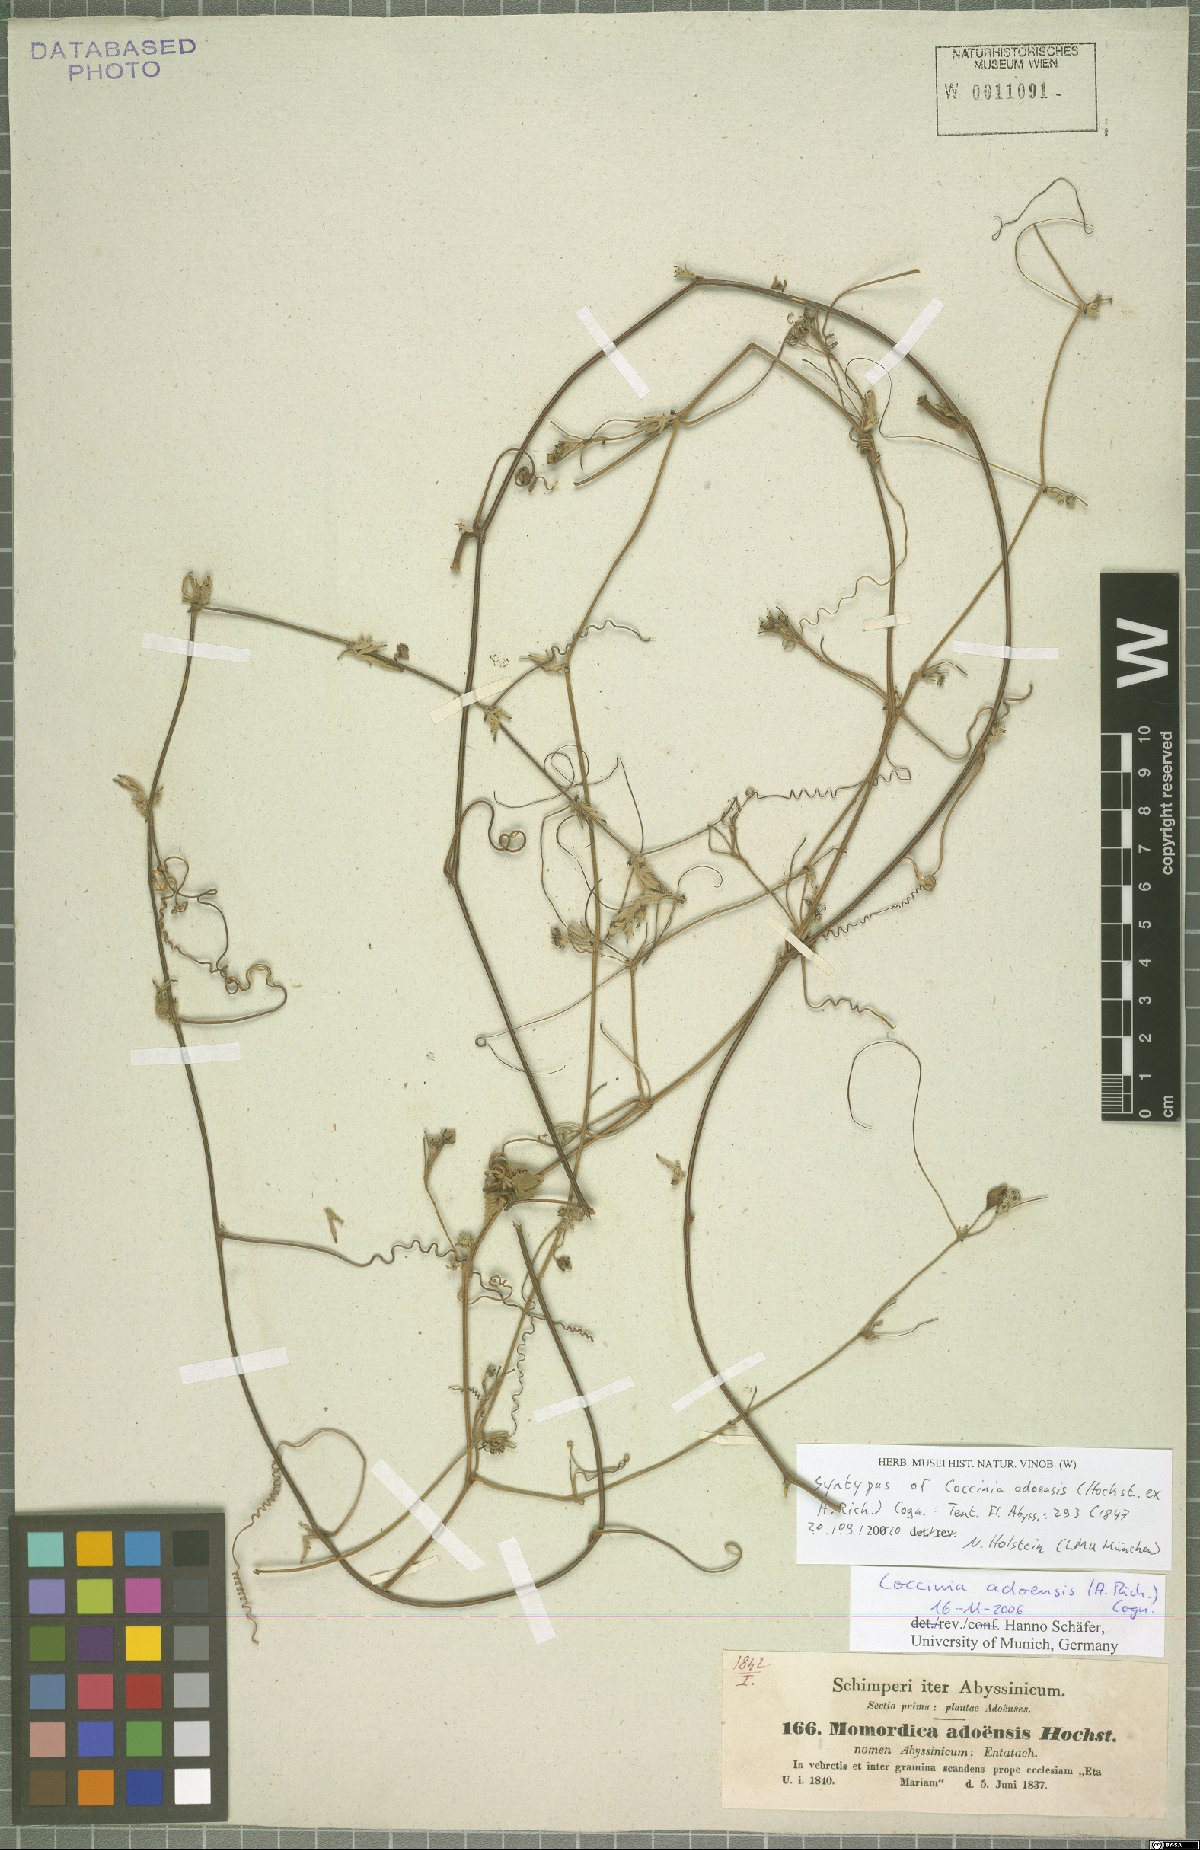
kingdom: Plantae
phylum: Tracheophyta
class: Magnoliopsida
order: Cucurbitales
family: Cucurbitaceae
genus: Coccinia
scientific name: Coccinia adoensis
